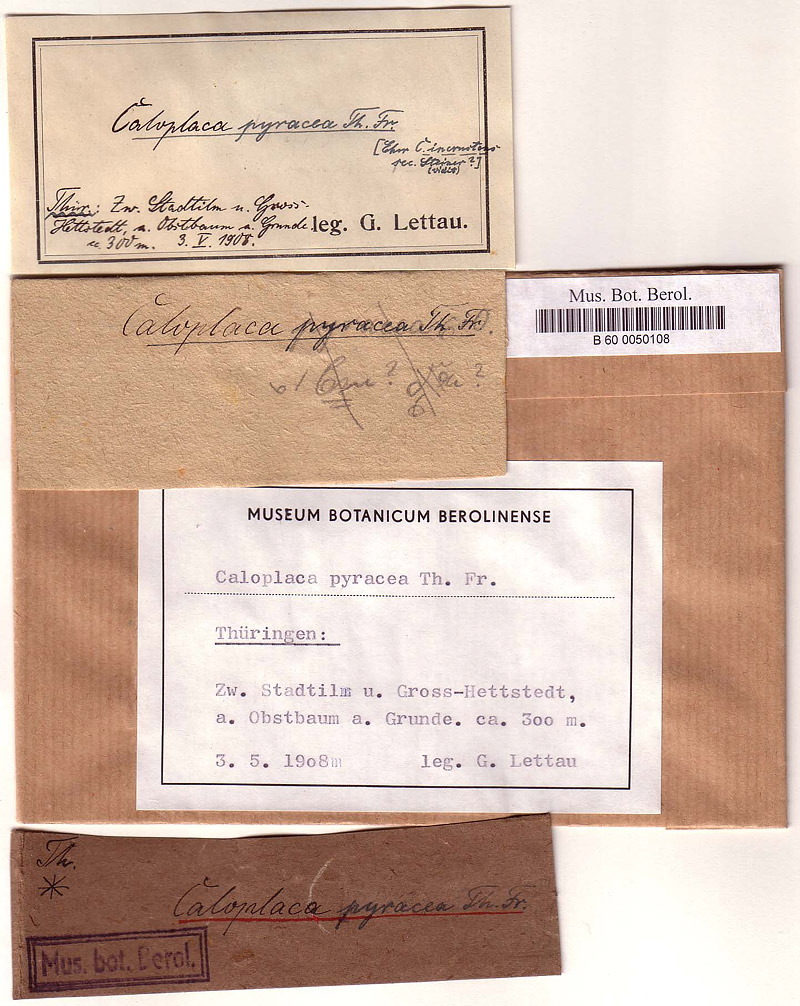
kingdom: Fungi
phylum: Ascomycota
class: Lecanoromycetes
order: Teloschistales
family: Teloschistaceae
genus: Caloplaca
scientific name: Caloplaca pyracea
